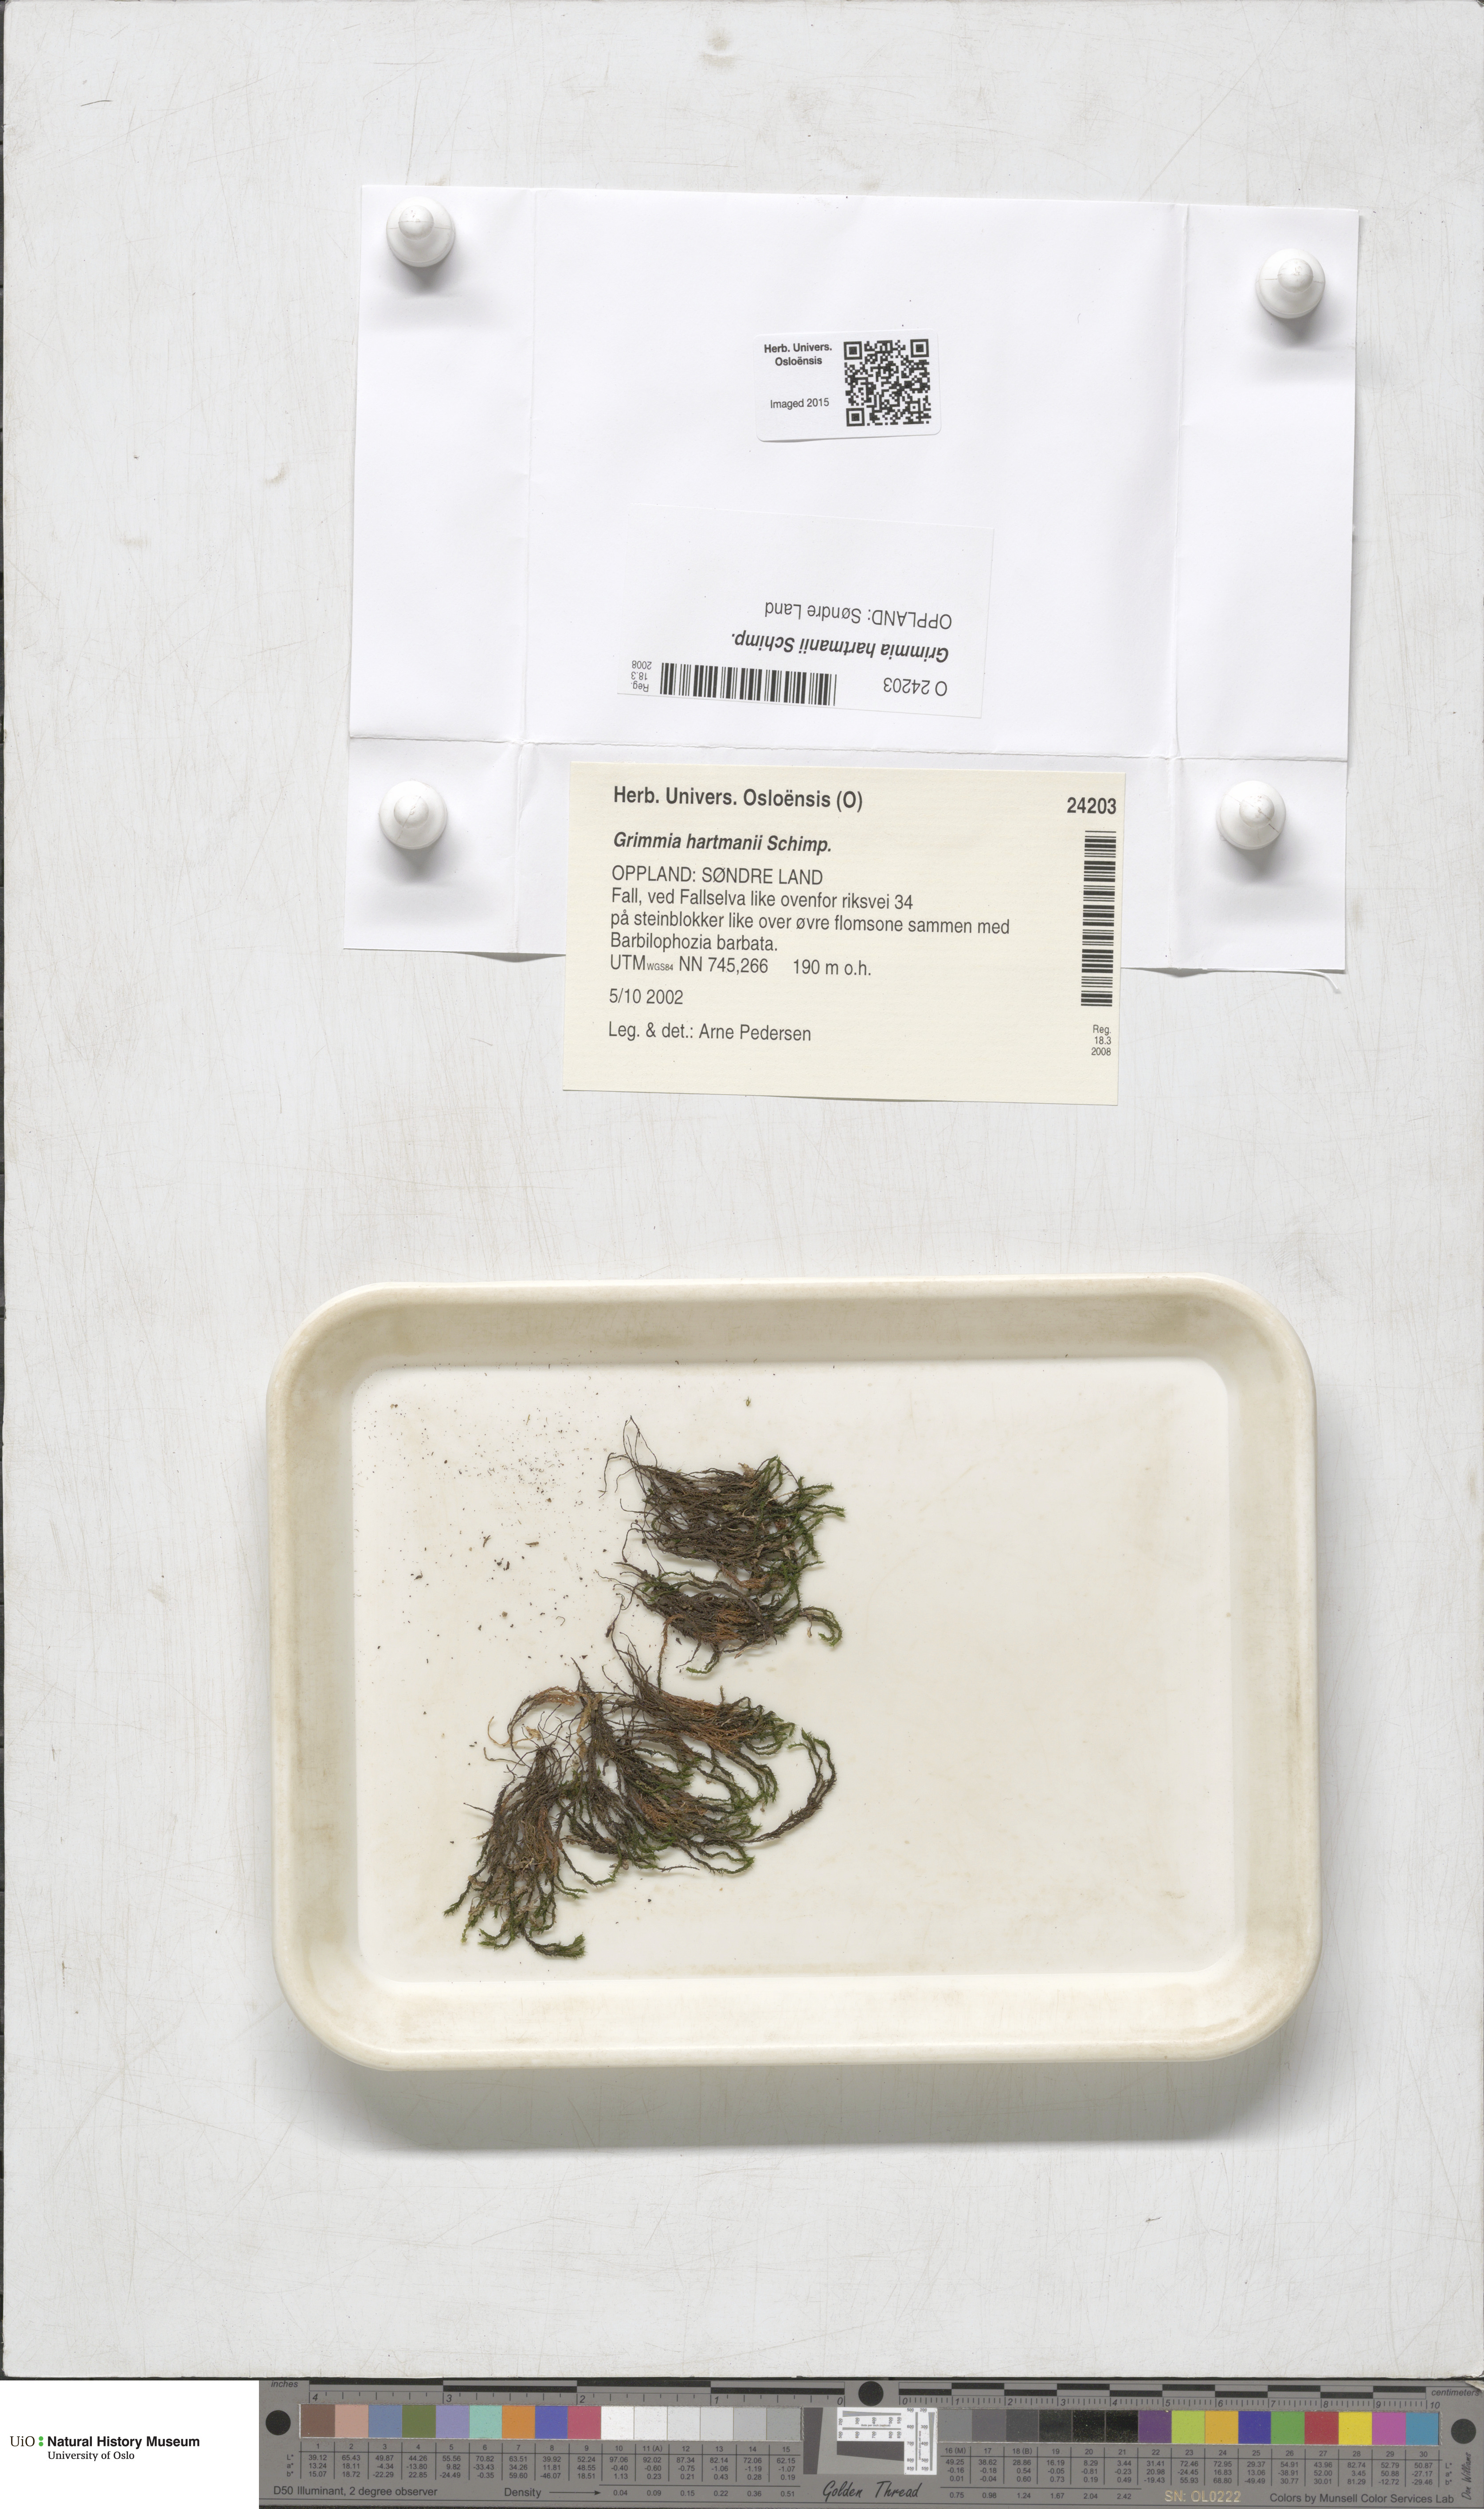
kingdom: Plantae
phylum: Bryophyta
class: Bryopsida
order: Grimmiales
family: Grimmiaceae
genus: Grimmia
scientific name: Grimmia hartmanii
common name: Hartman's grimmia
